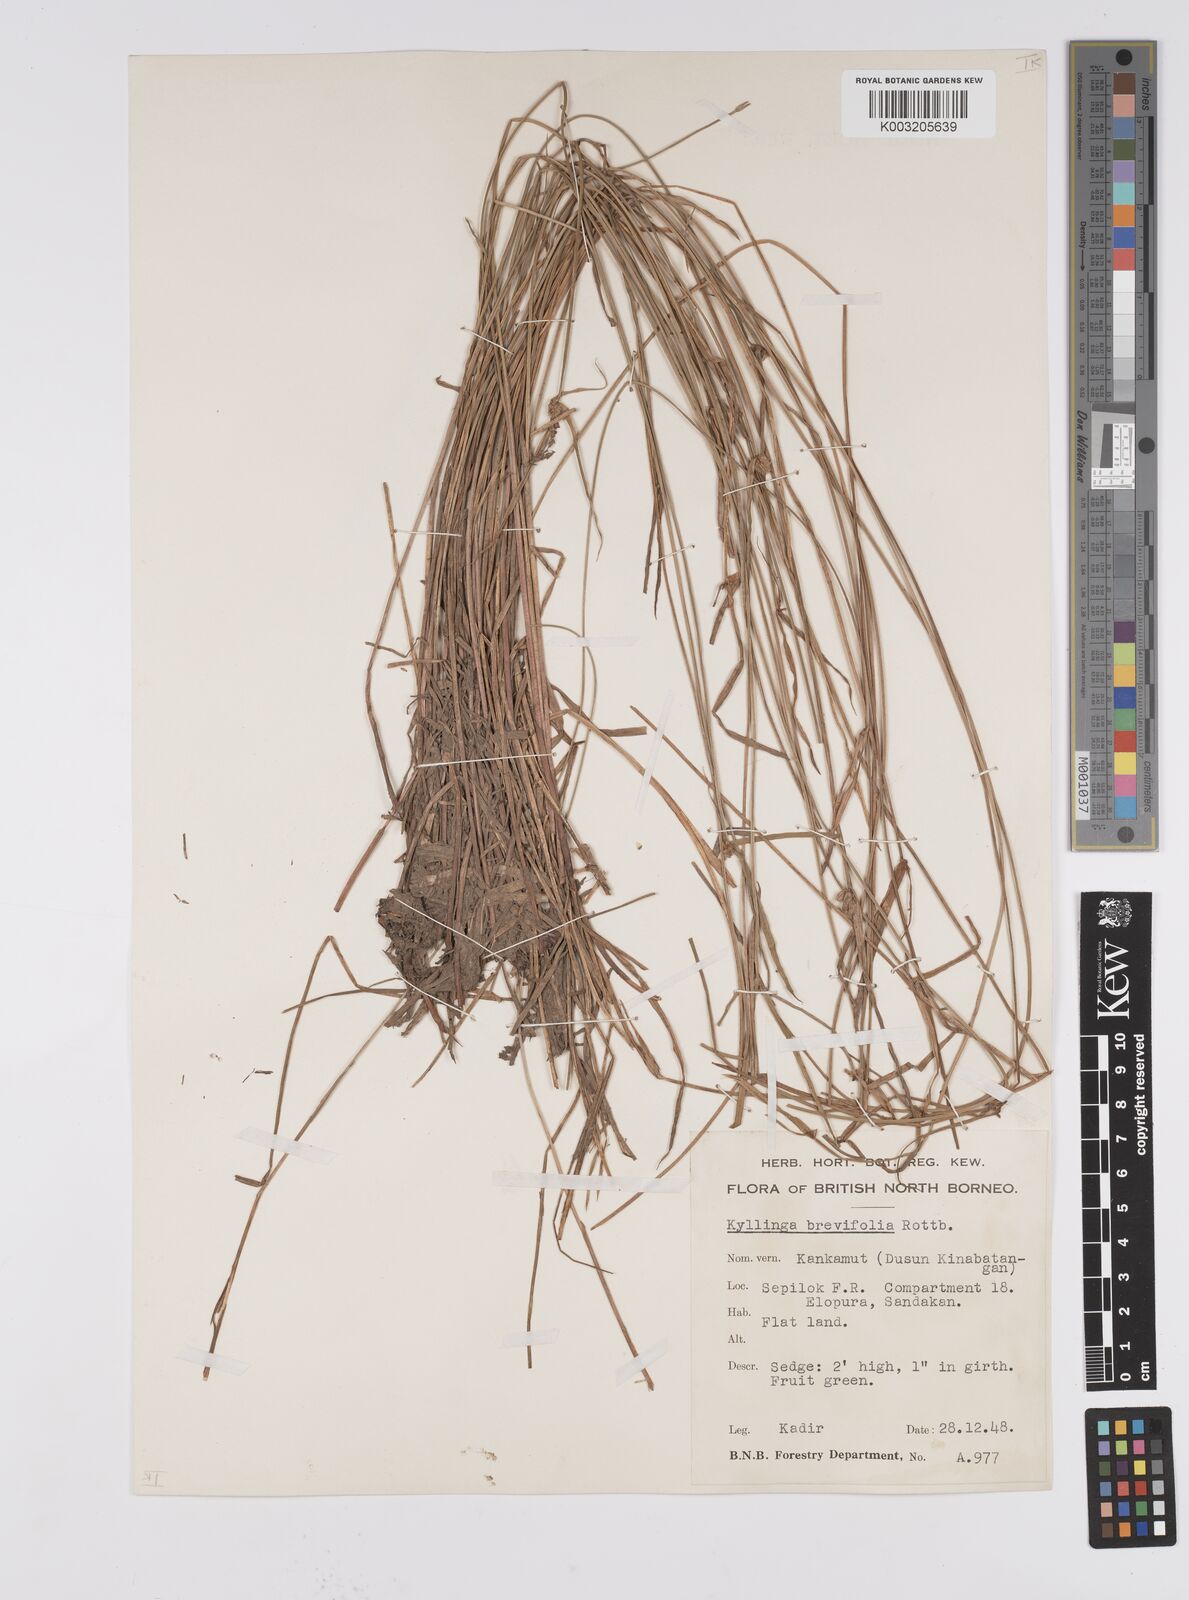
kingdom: Plantae
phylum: Tracheophyta
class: Liliopsida
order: Poales
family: Cyperaceae
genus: Cyperus
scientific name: Cyperus brevifolius
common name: Globe kyllinga
